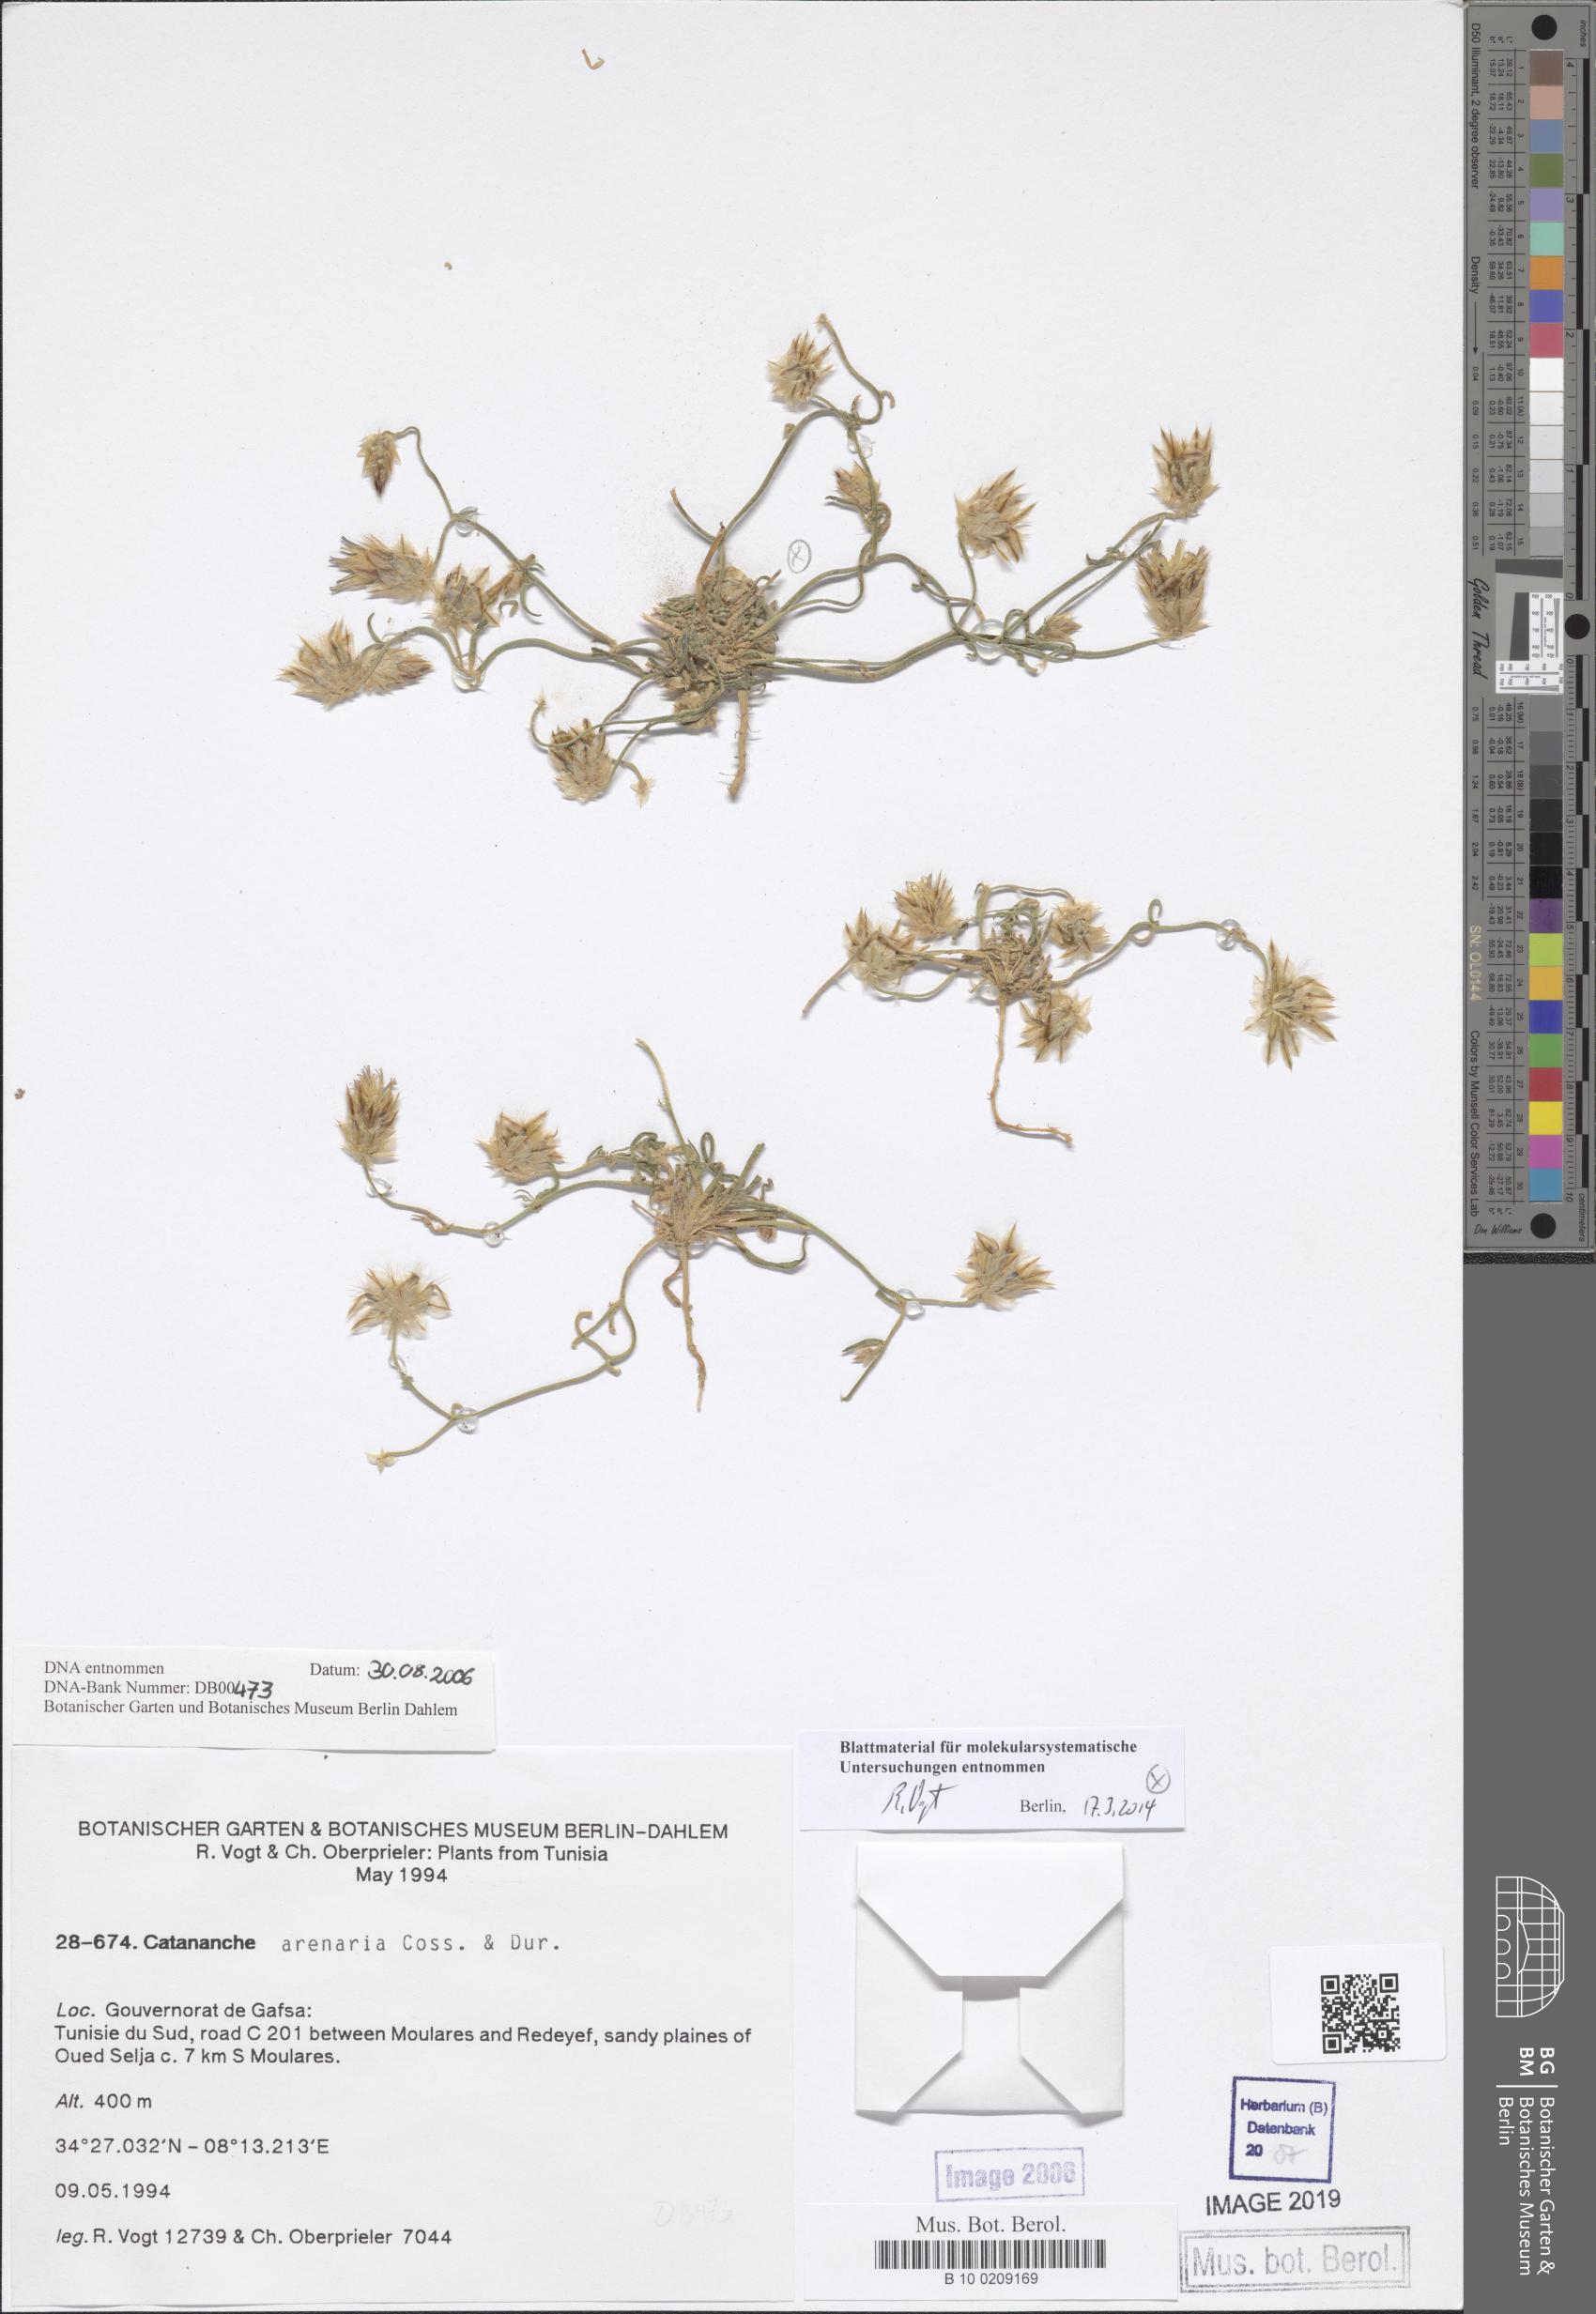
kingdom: Plantae
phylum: Tracheophyta
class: Magnoliopsida
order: Asterales
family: Asteraceae
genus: Catananche
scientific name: Catananche arenaria
